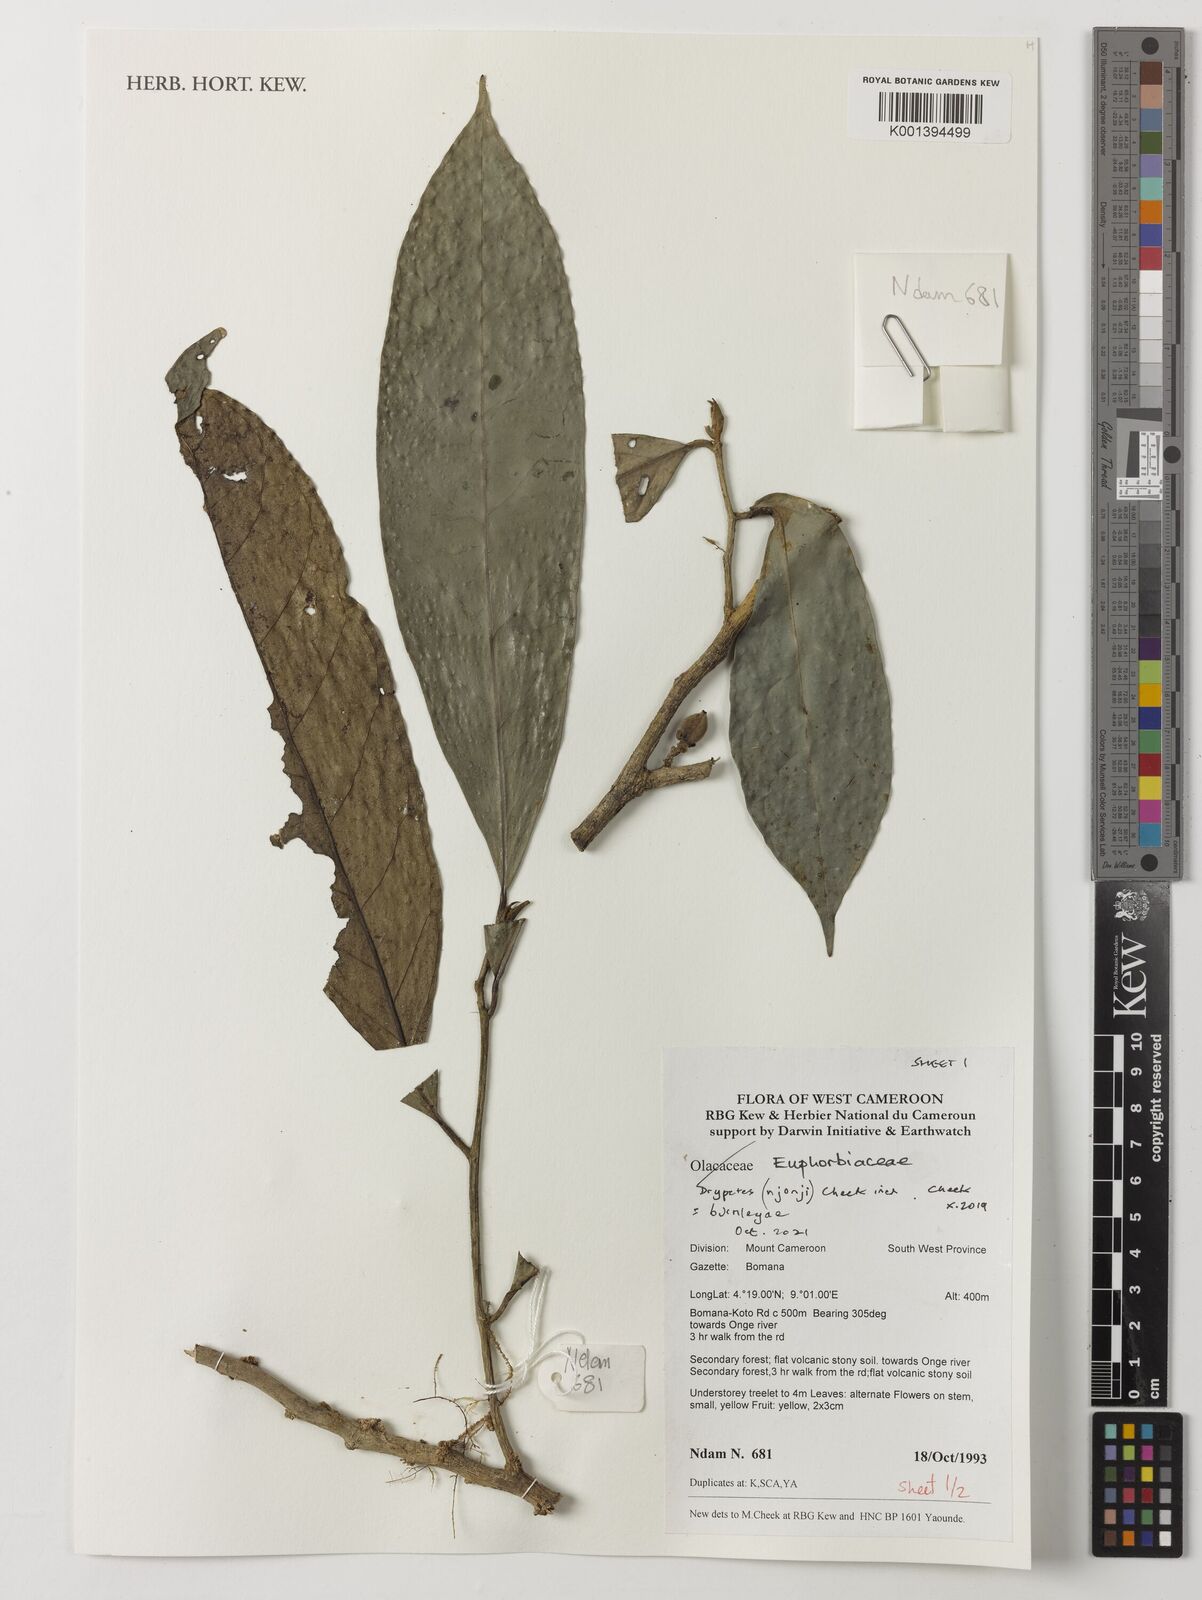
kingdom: Plantae
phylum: Tracheophyta
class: Magnoliopsida
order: Malpighiales
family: Putranjivaceae
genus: Drypetes
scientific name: Drypetes
